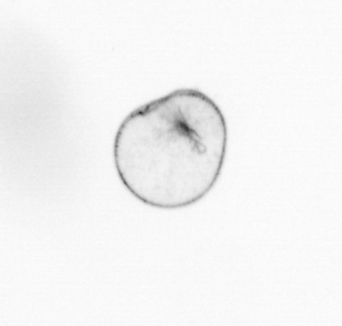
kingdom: Chromista
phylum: Myzozoa
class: Dinophyceae
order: Noctilucales
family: Noctilucaceae
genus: Noctiluca
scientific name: Noctiluca scintillans
